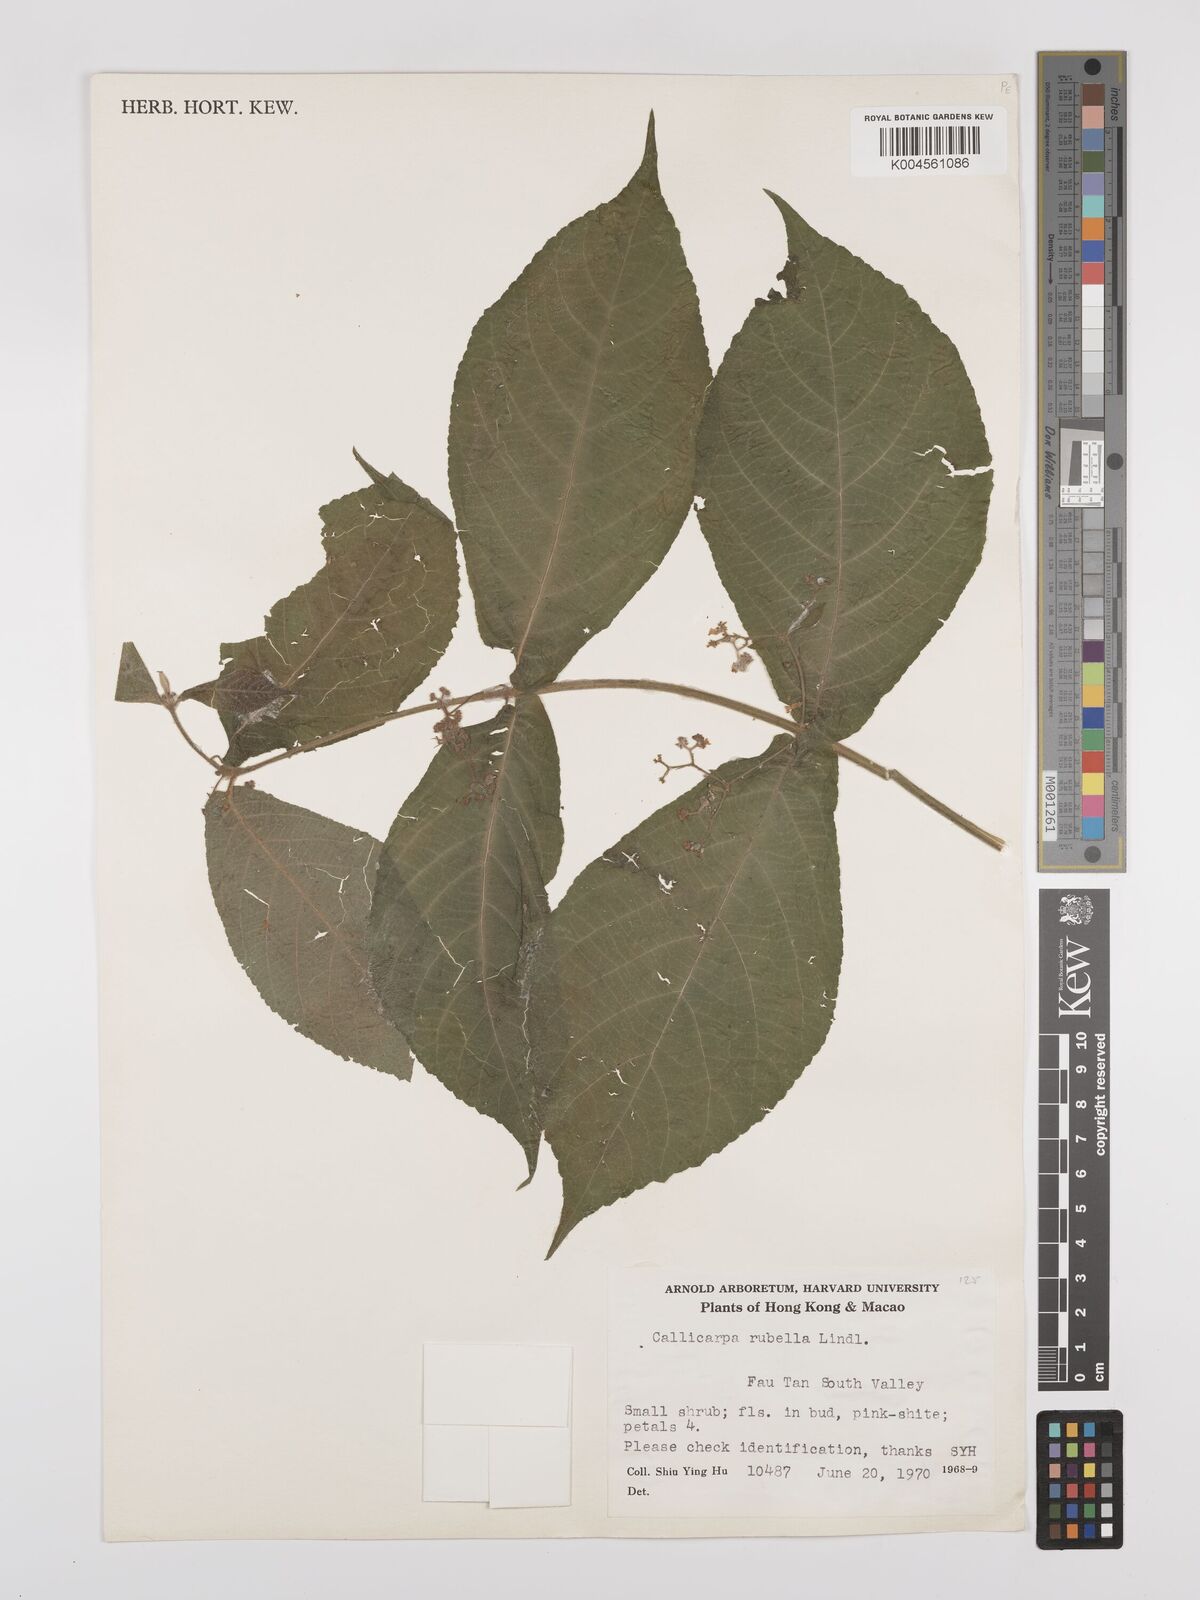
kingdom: Plantae
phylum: Tracheophyta
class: Magnoliopsida
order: Lamiales
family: Lamiaceae
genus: Callicarpa
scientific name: Callicarpa rubella
